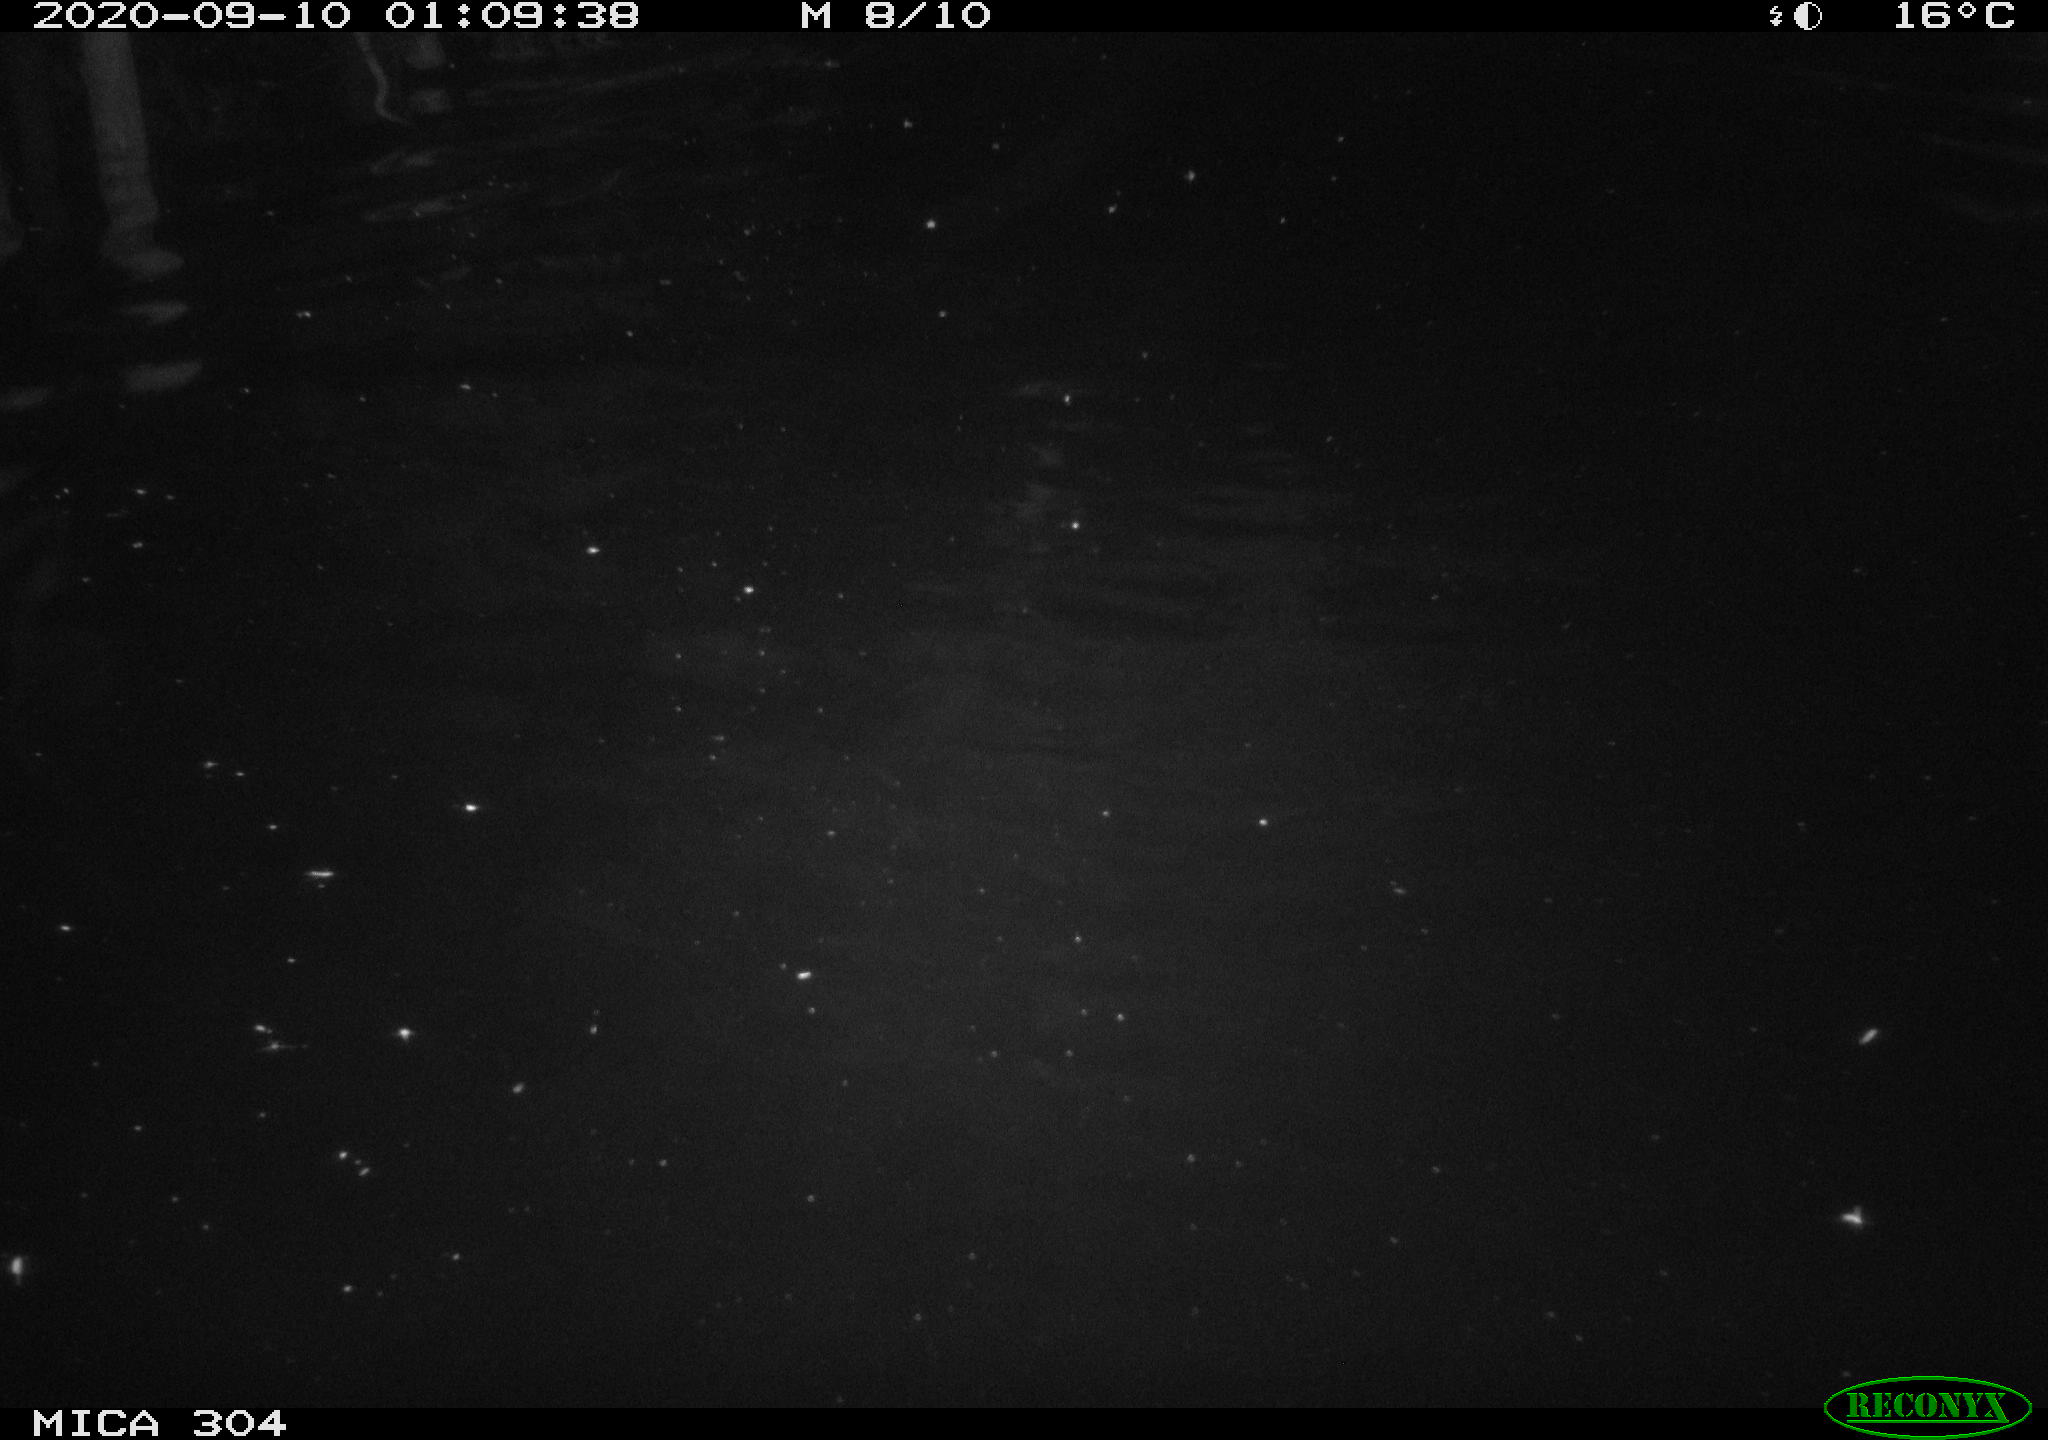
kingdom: Animalia
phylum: Chordata
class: Mammalia
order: Rodentia
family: Cricetidae
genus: Ondatra
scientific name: Ondatra zibethicus
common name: Muskrat
